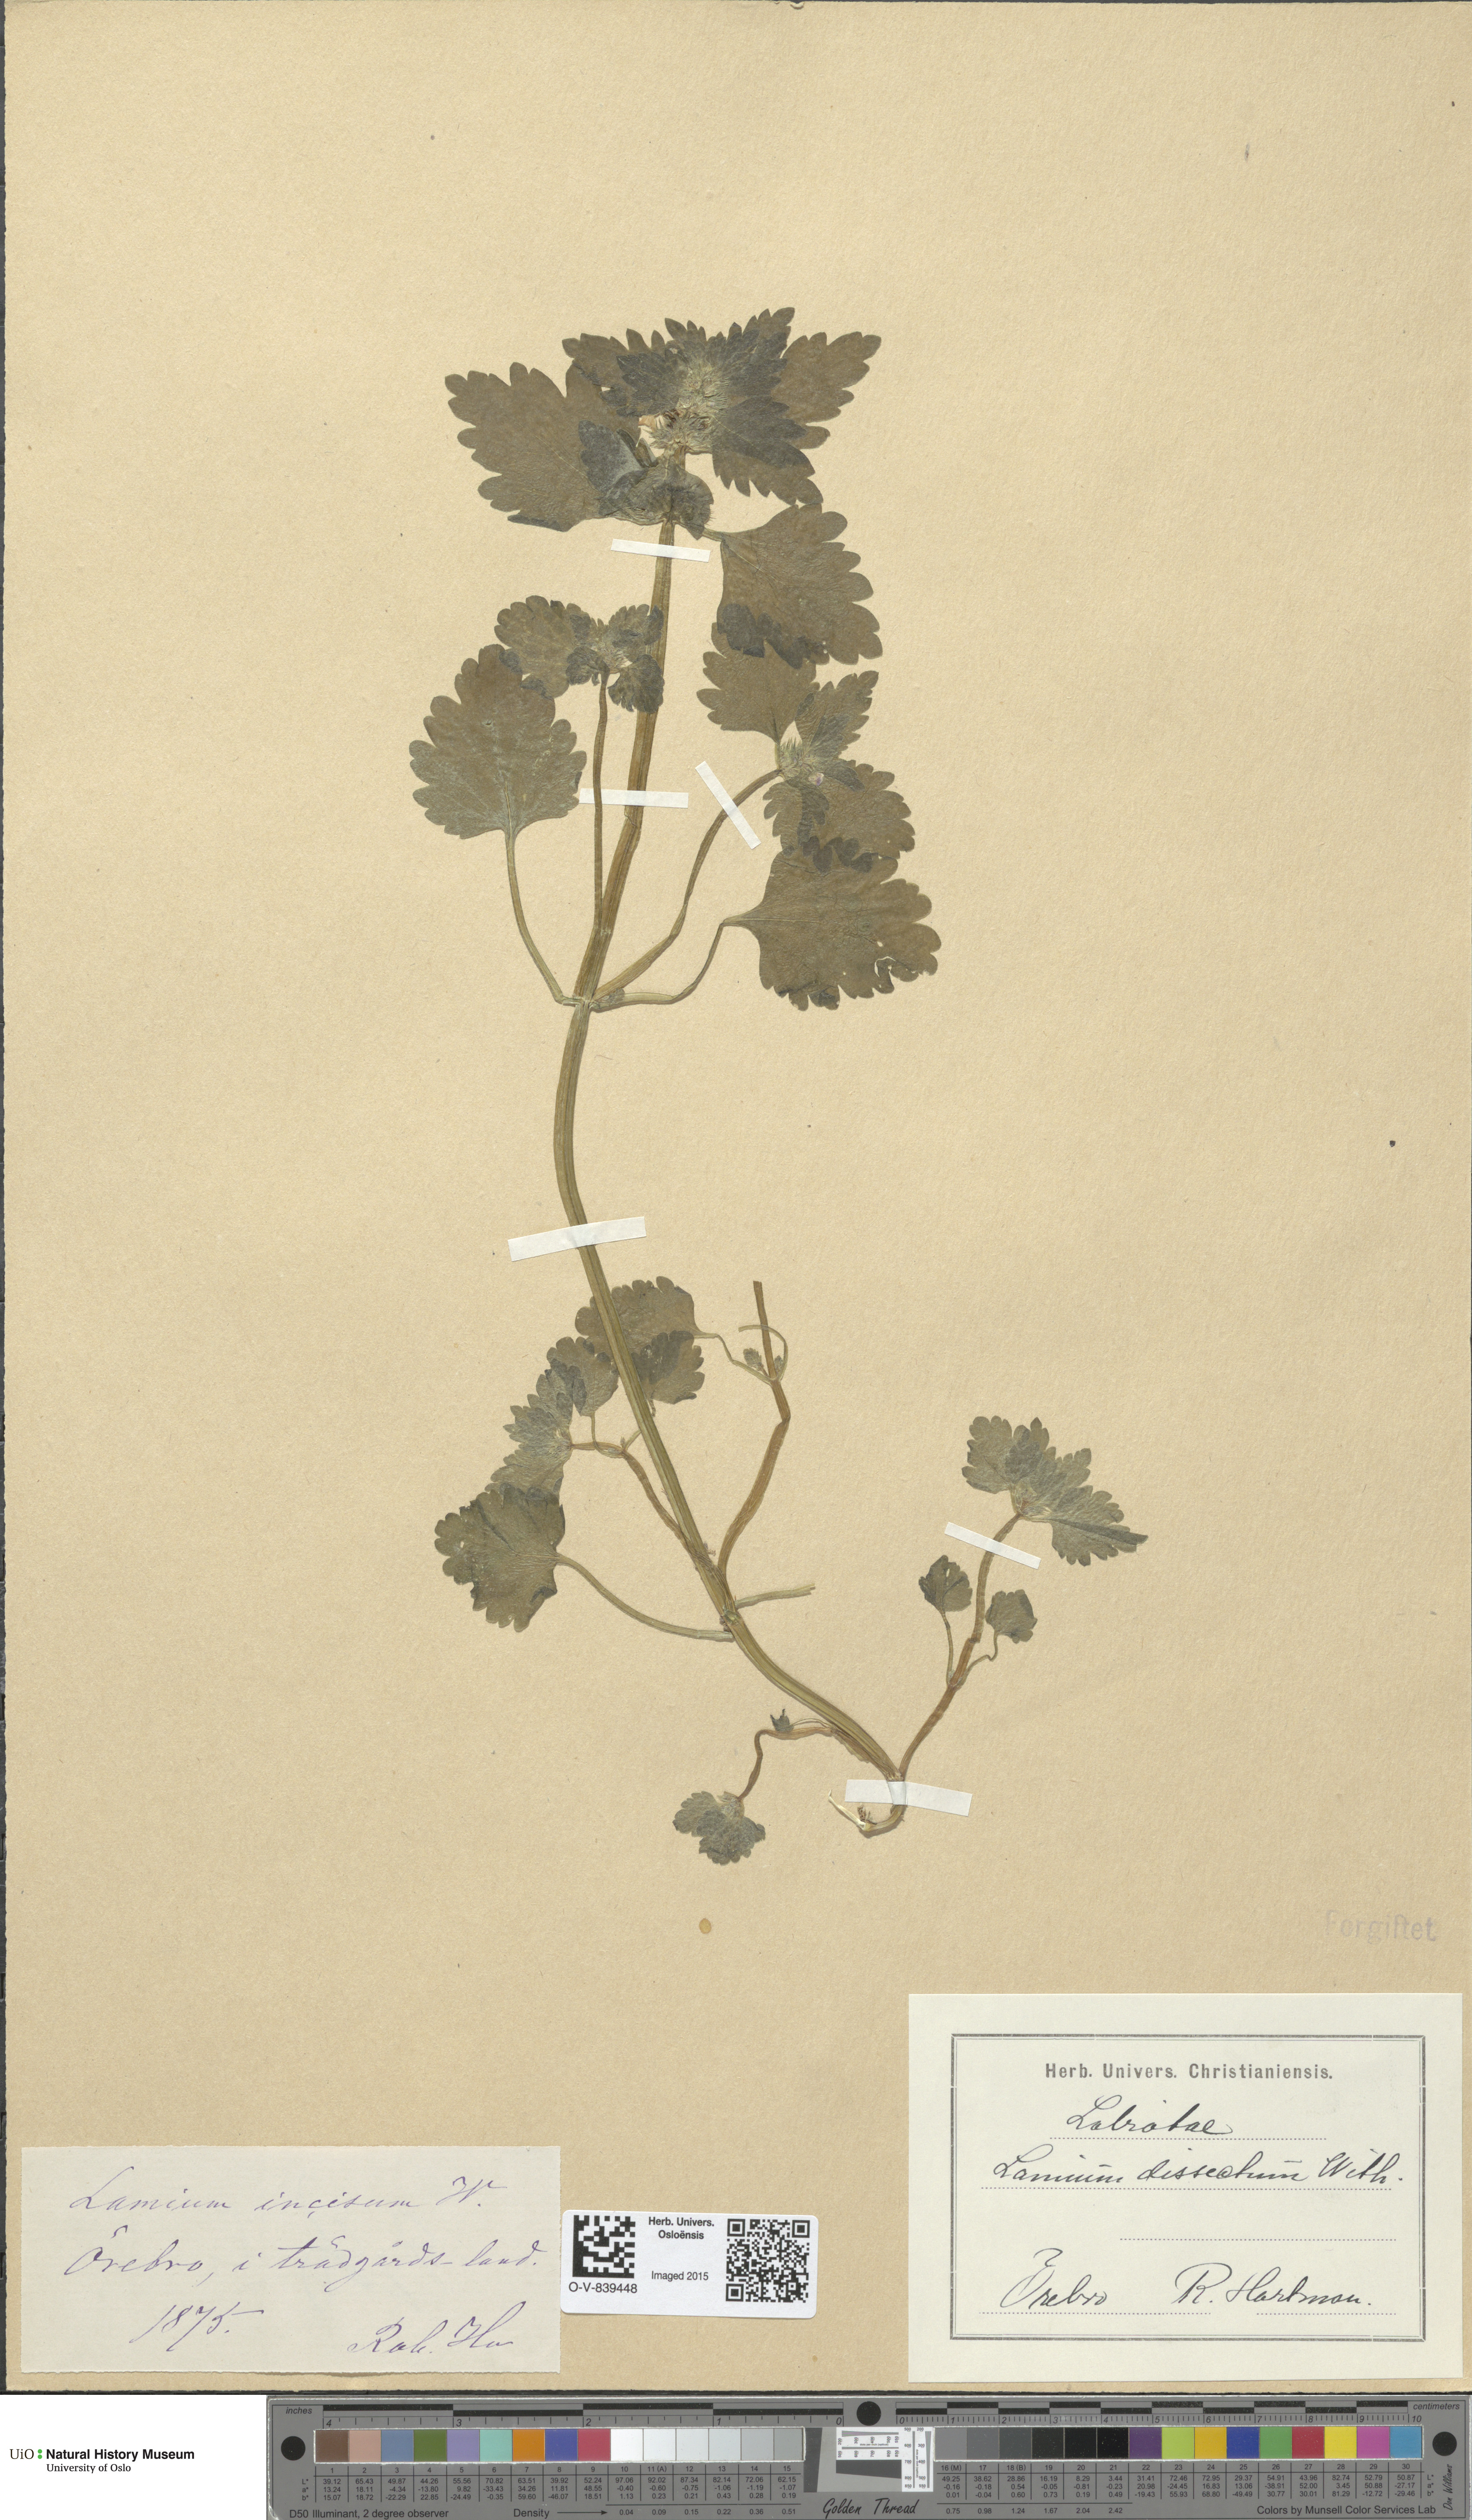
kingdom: Plantae
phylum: Tracheophyta
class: Magnoliopsida
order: Lamiales
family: Lamiaceae
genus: Lamium
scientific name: Lamium hybridum
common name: Cut-leaved dead-nettle
